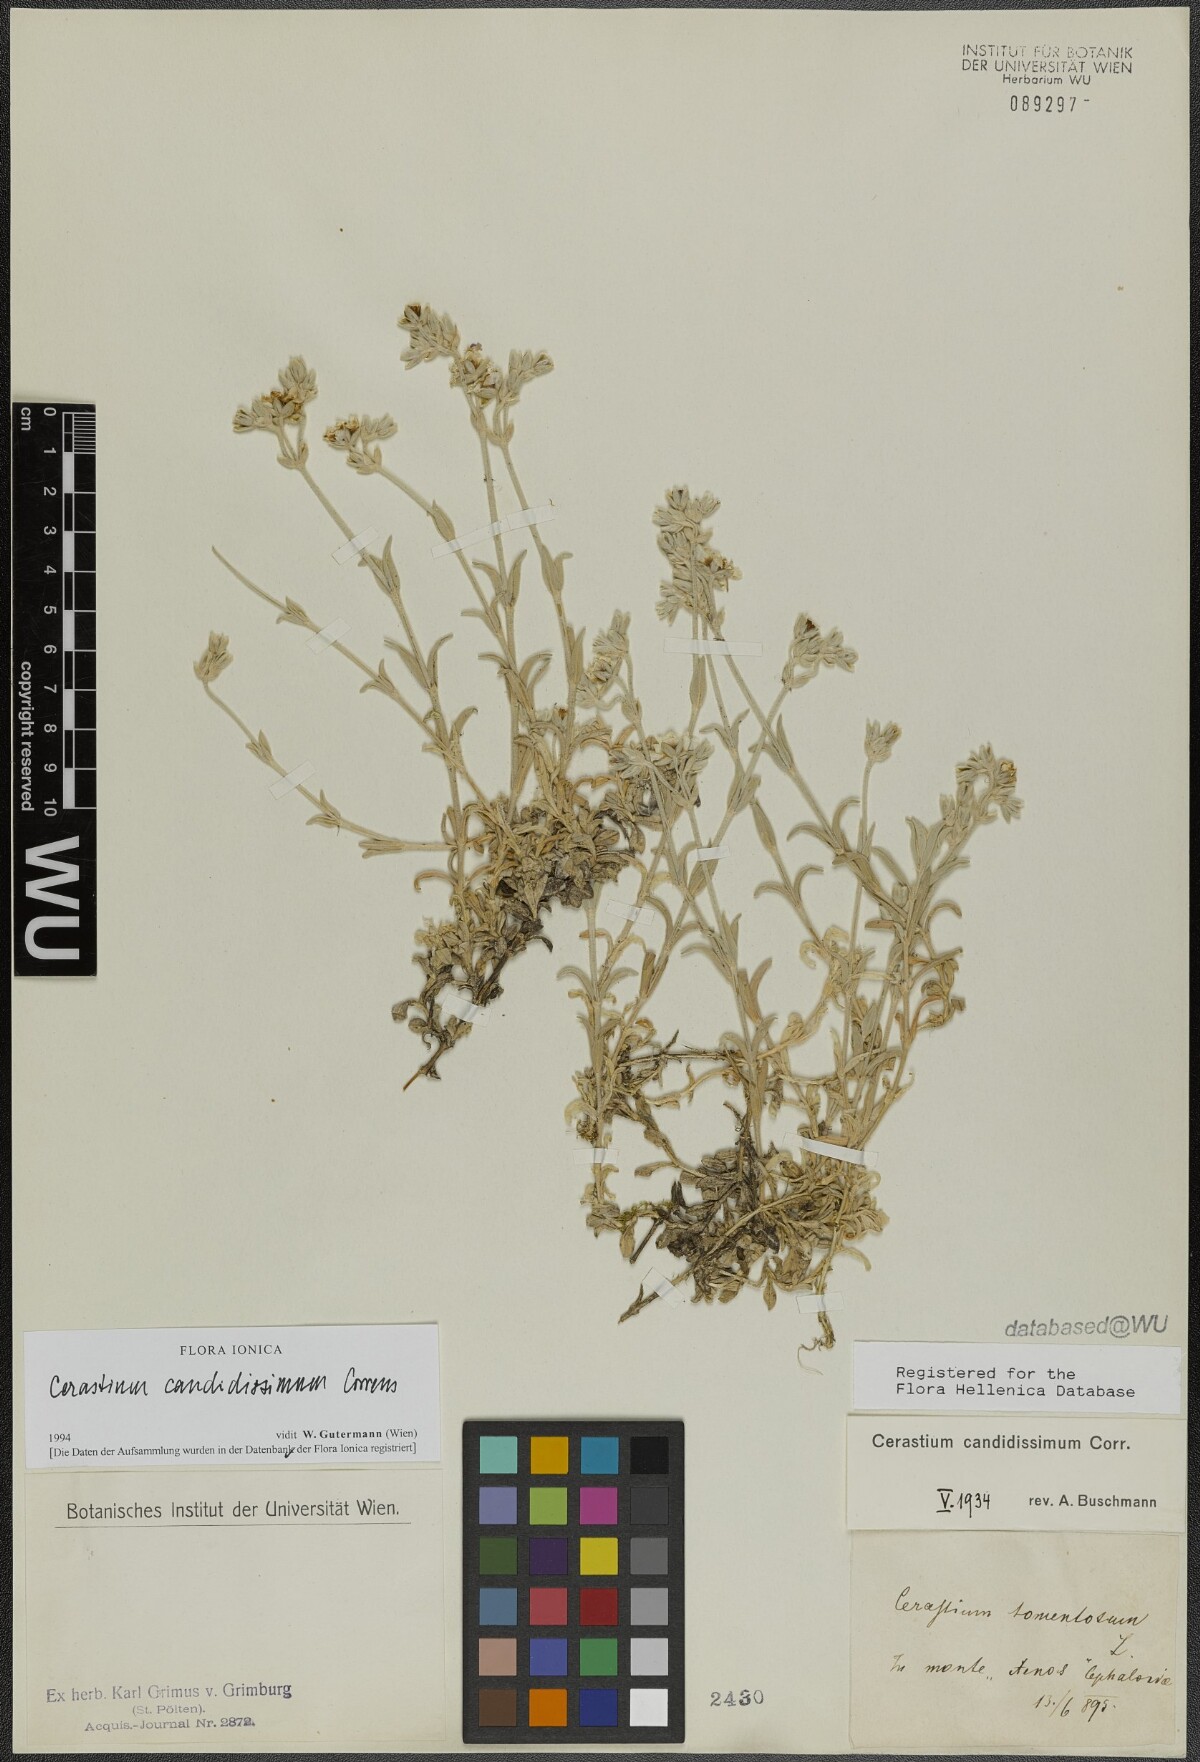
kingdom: Plantae
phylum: Tracheophyta
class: Magnoliopsida
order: Caryophyllales
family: Caryophyllaceae
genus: Cerastium
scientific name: Cerastium candidissimum
